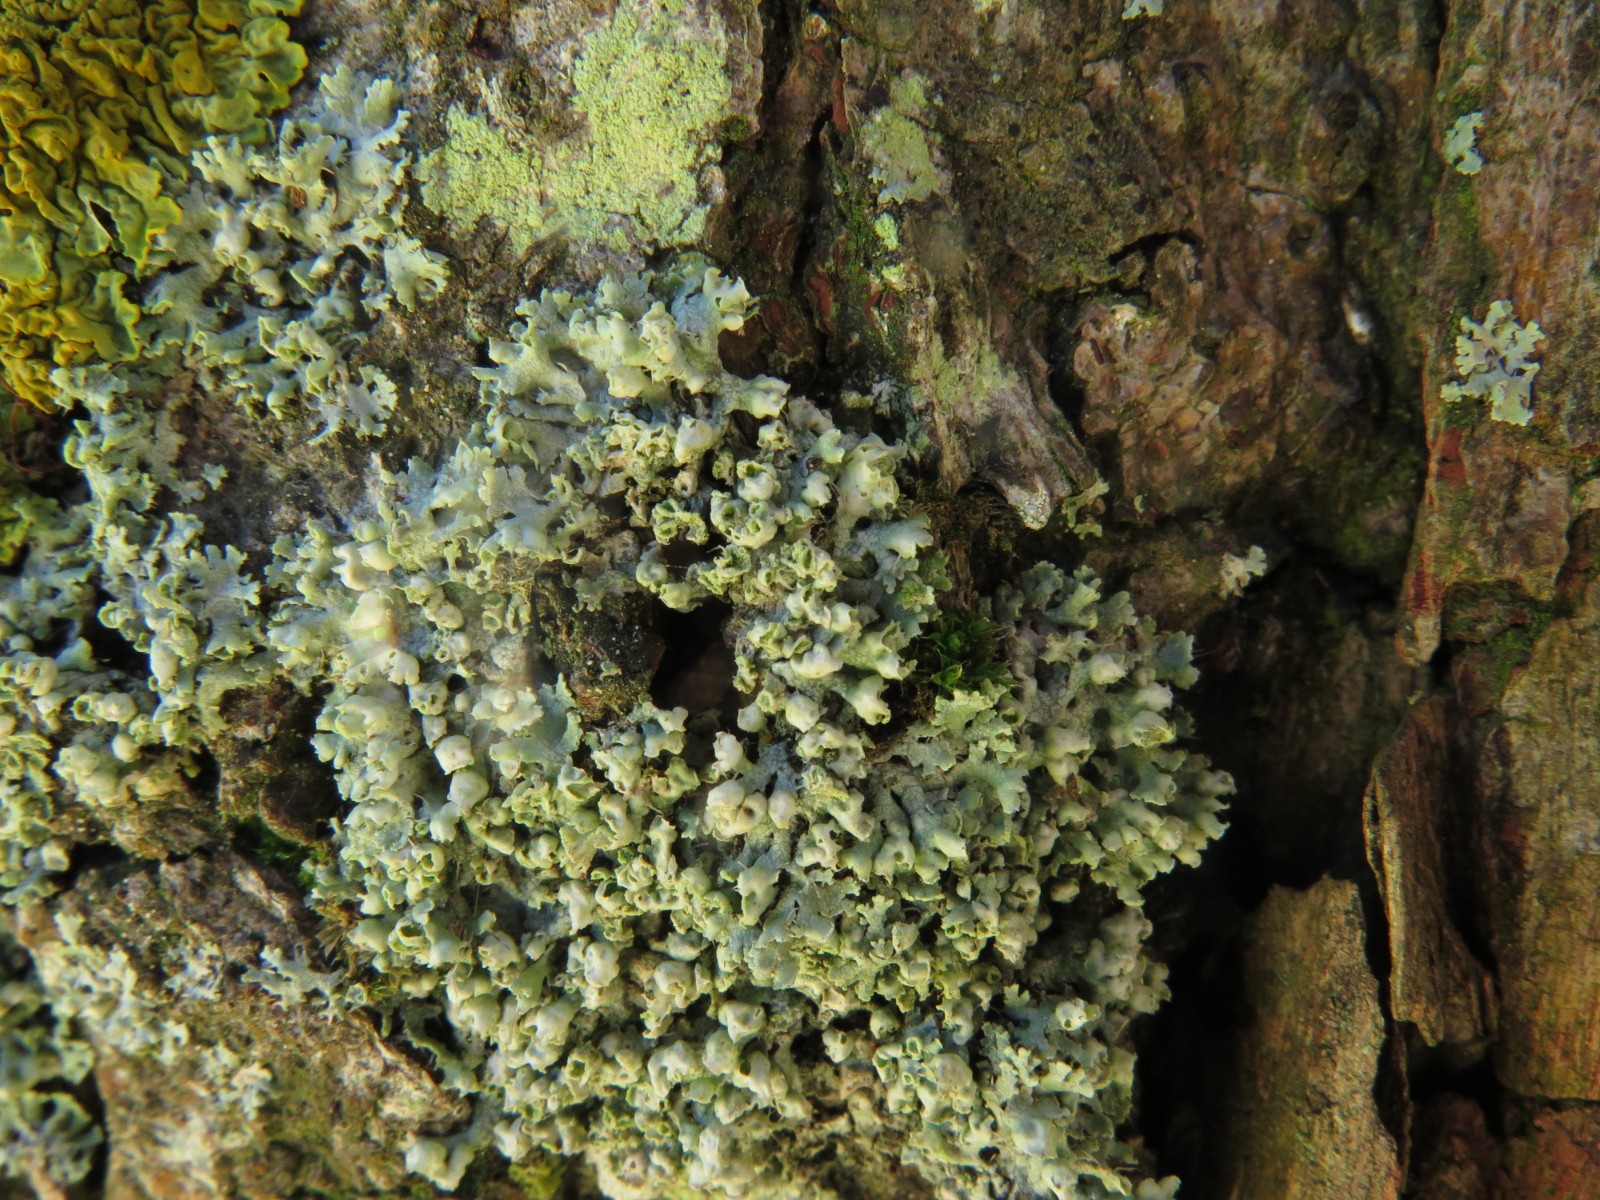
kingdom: Fungi
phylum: Ascomycota
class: Lecanoromycetes
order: Caliciales
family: Physciaceae
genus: Physcia
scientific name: Physcia adscendens
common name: hætte-rosetlav
